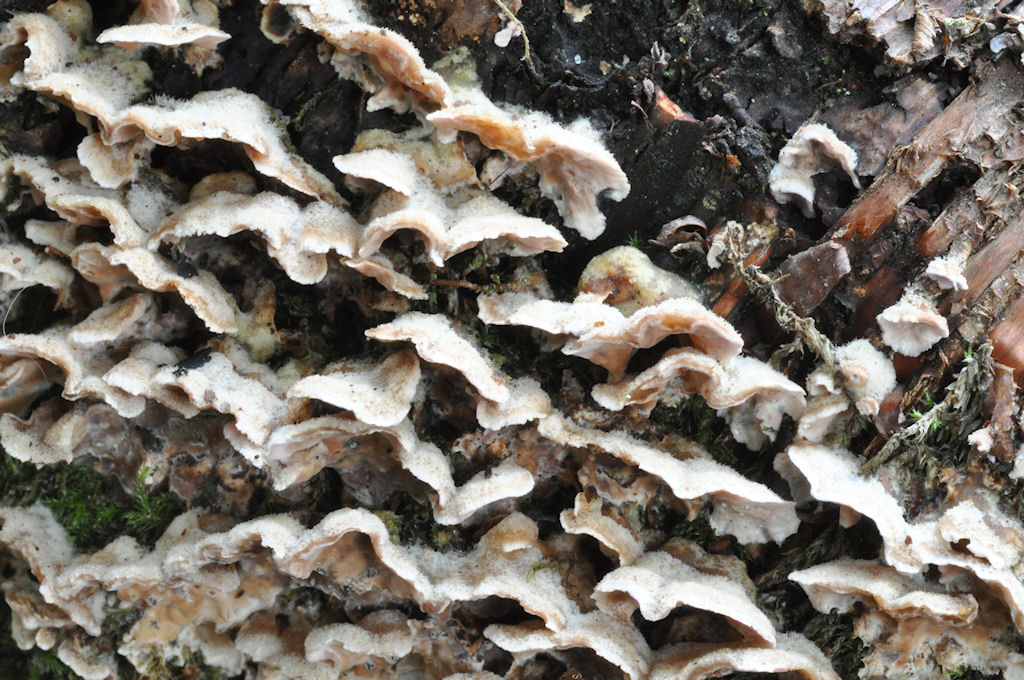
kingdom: Fungi
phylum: Basidiomycota
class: Agaricomycetes
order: Agaricales
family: Cyphellaceae
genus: Chondrostereum
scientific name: Chondrostereum purpureum
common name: purpurlædersvamp
